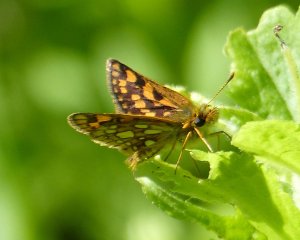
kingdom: Animalia
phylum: Arthropoda
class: Insecta
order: Lepidoptera
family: Hesperiidae
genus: Carterocephalus
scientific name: Carterocephalus palaemon
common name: Chequered Skipper
